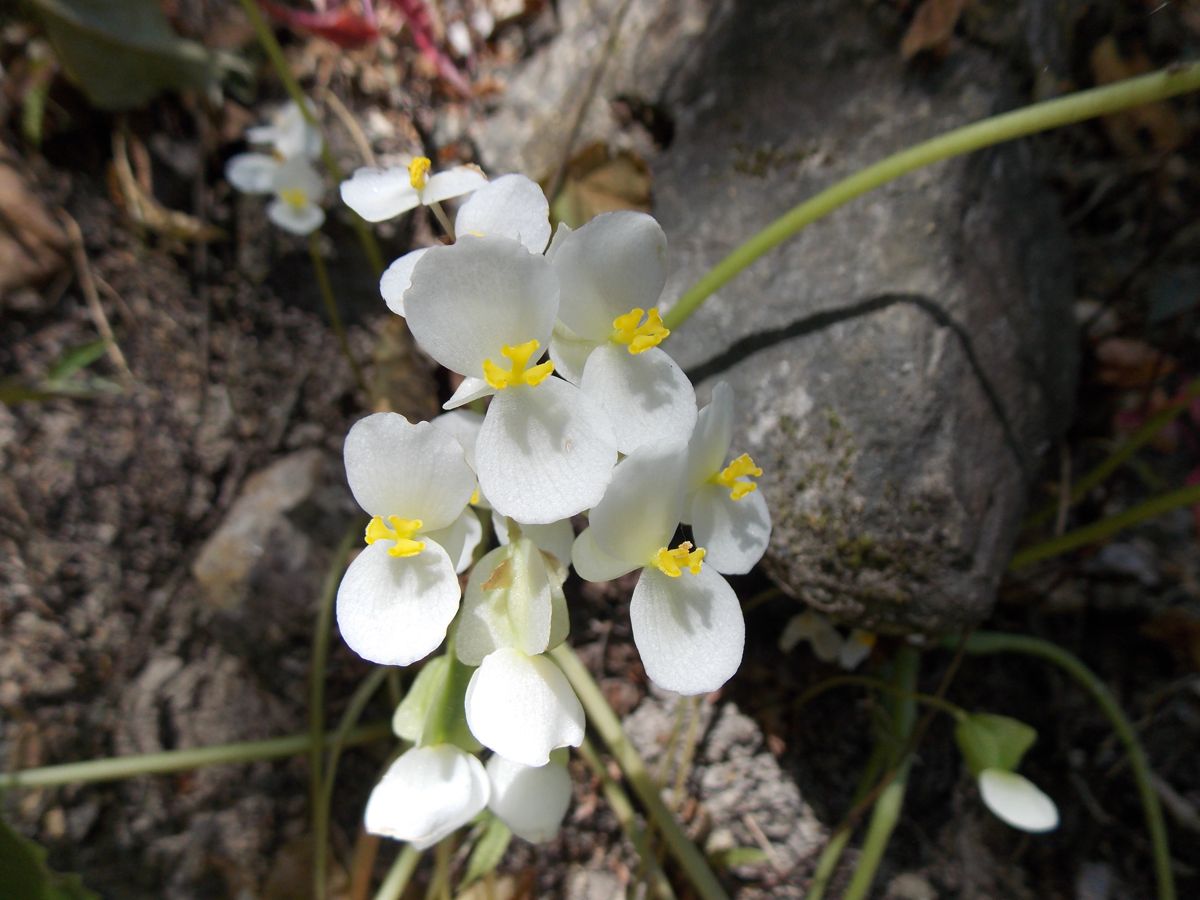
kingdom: Plantae
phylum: Tracheophyta
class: Magnoliopsida
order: Cucurbitales
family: Begoniaceae
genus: Begonia
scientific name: Begonia plebeja
